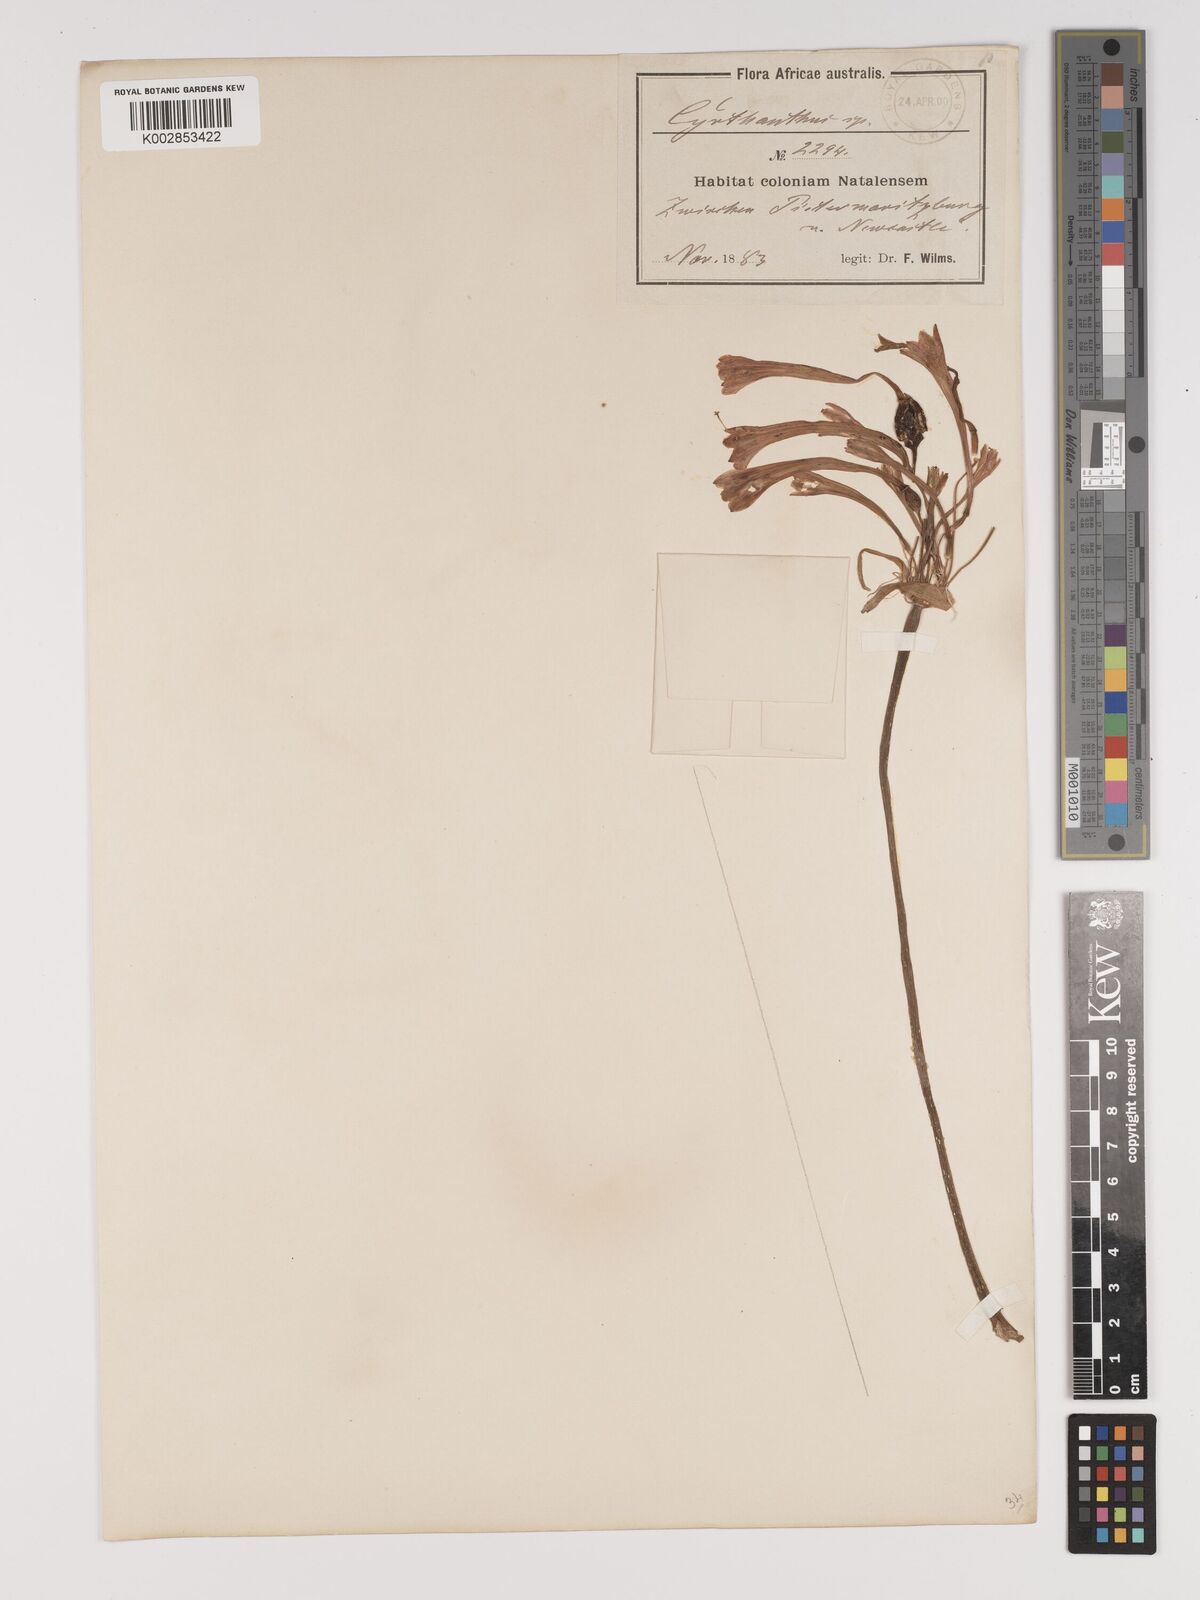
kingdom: Plantae
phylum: Tracheophyta
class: Liliopsida
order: Asparagales
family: Amaryllidaceae
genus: Cyrtanthus
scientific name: Cyrtanthus contractus
